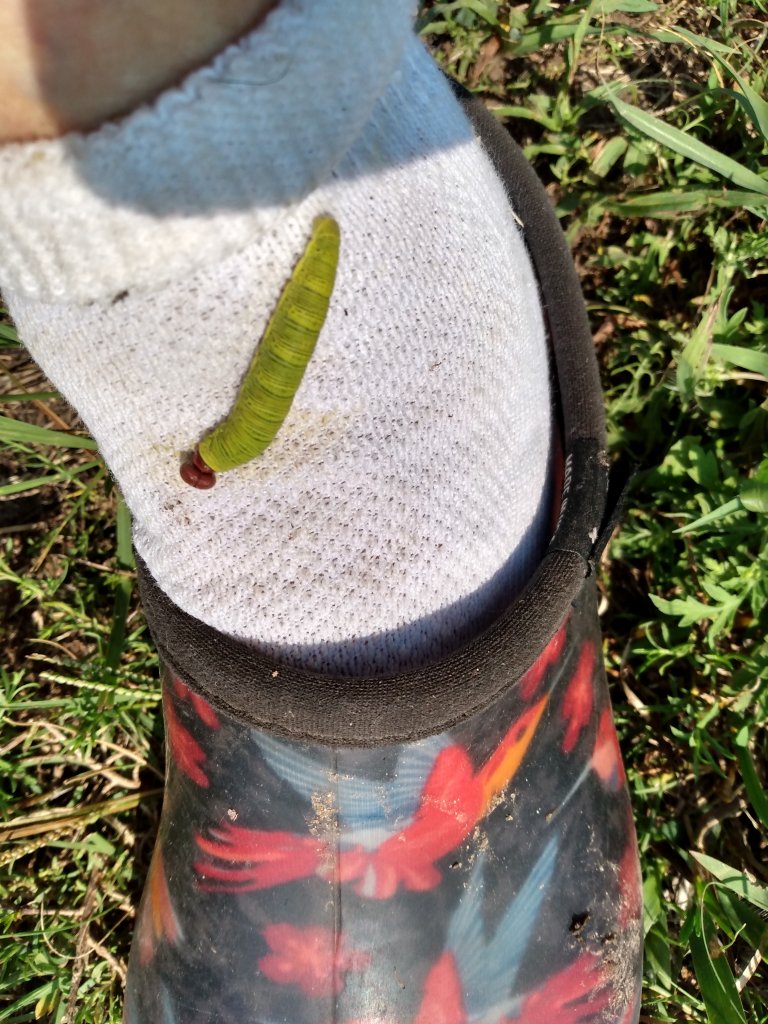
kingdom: Animalia
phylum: Arthropoda
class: Insecta
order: Lepidoptera
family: Hesperiidae
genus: Epargyreus
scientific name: Epargyreus clarus
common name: Silver-spotted Skipper
